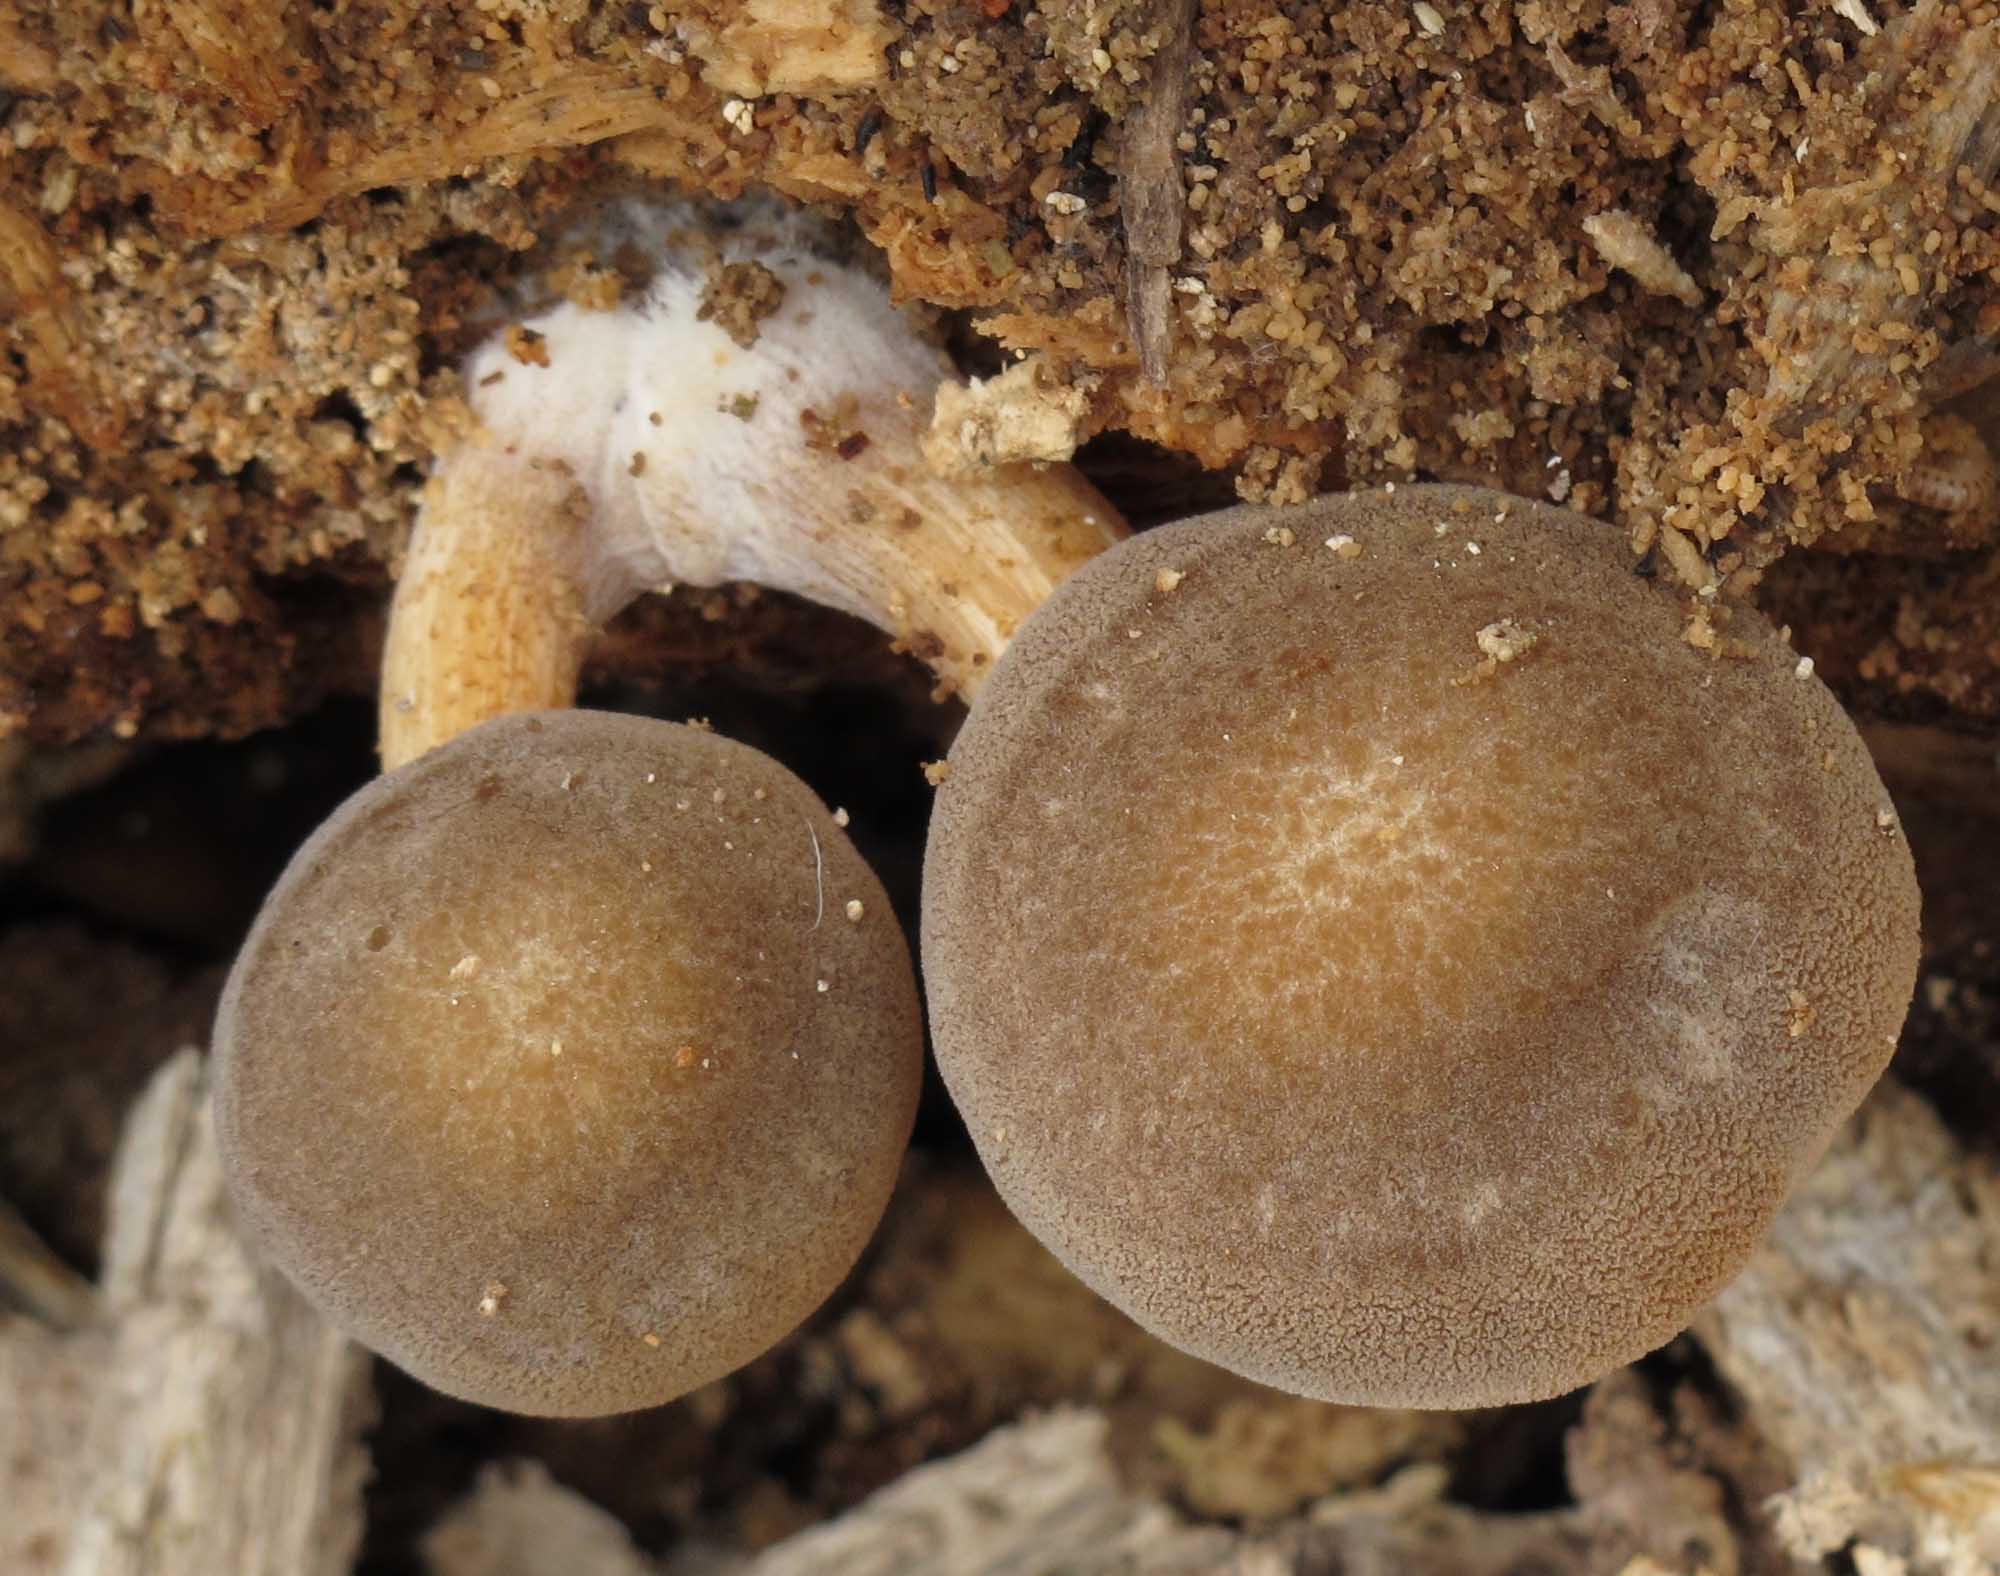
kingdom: Fungi
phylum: Basidiomycota
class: Agaricomycetes
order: Agaricales
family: Pluteaceae
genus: Pluteus
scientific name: Pluteus
